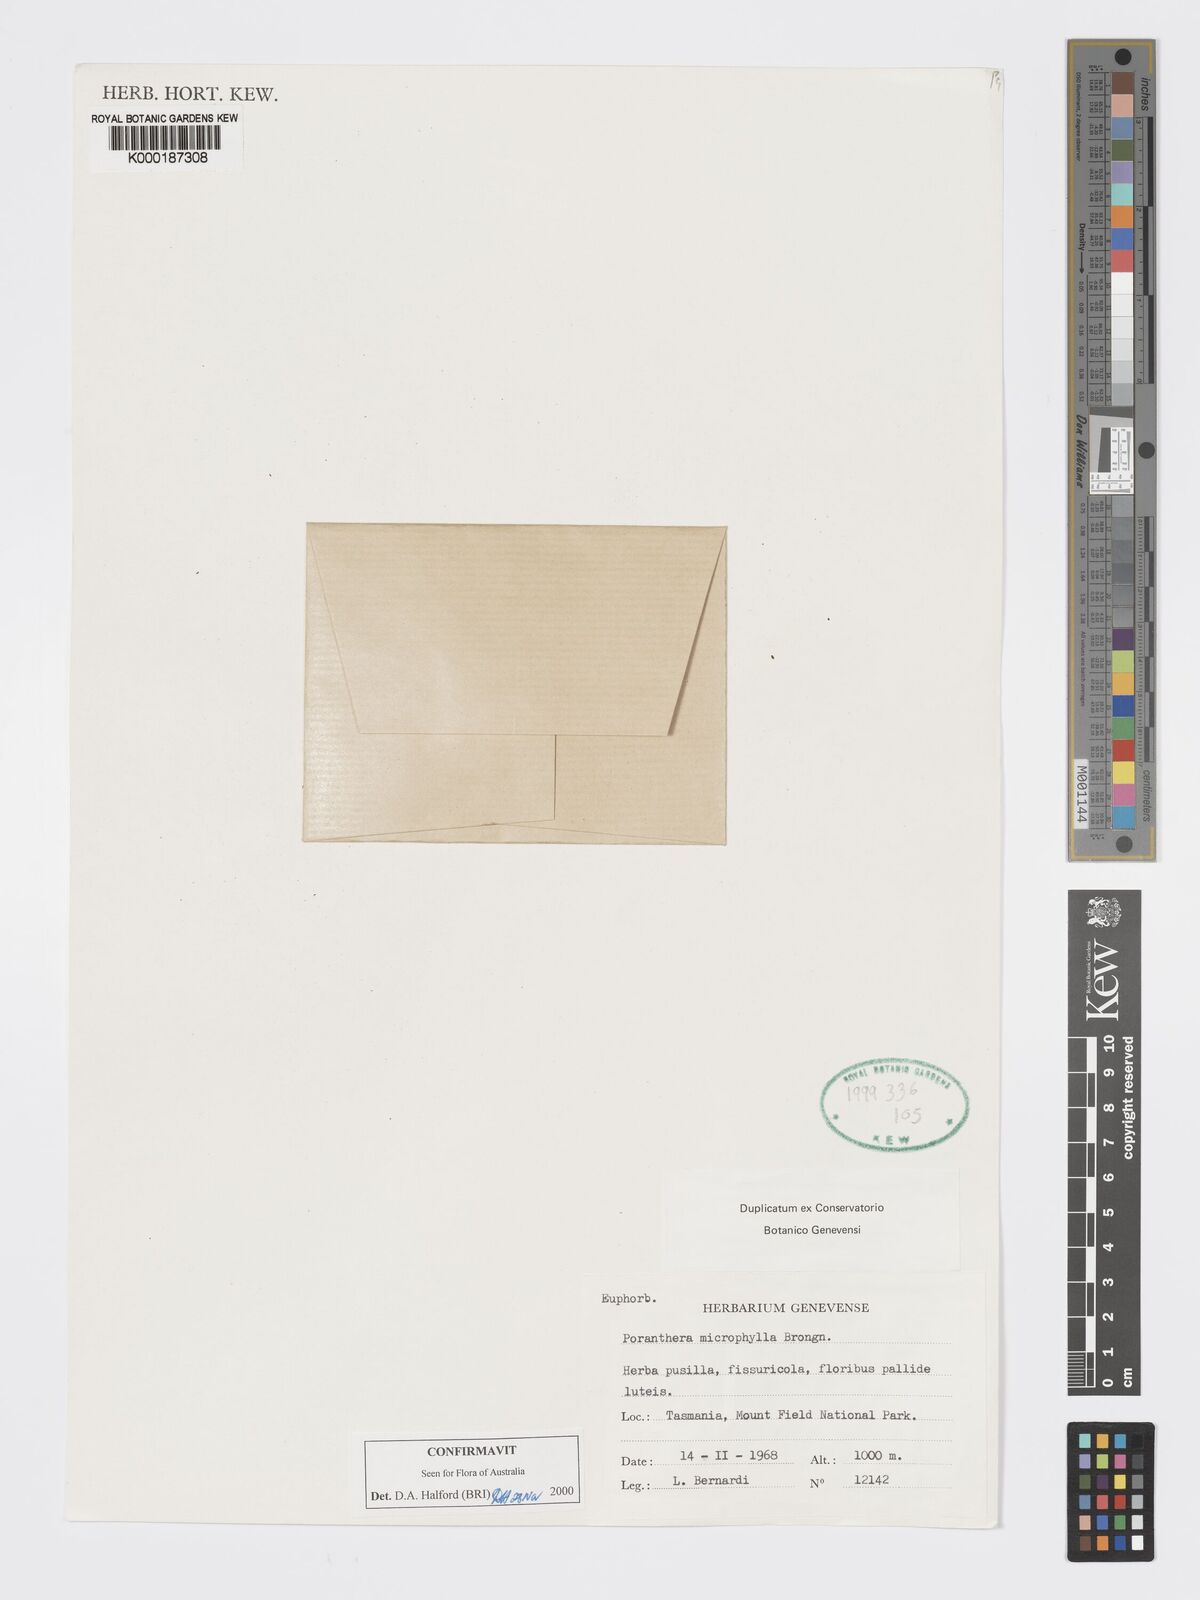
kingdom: Plantae
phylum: Tracheophyta
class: Magnoliopsida
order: Malpighiales
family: Phyllanthaceae
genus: Poranthera
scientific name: Poranthera microphylla
